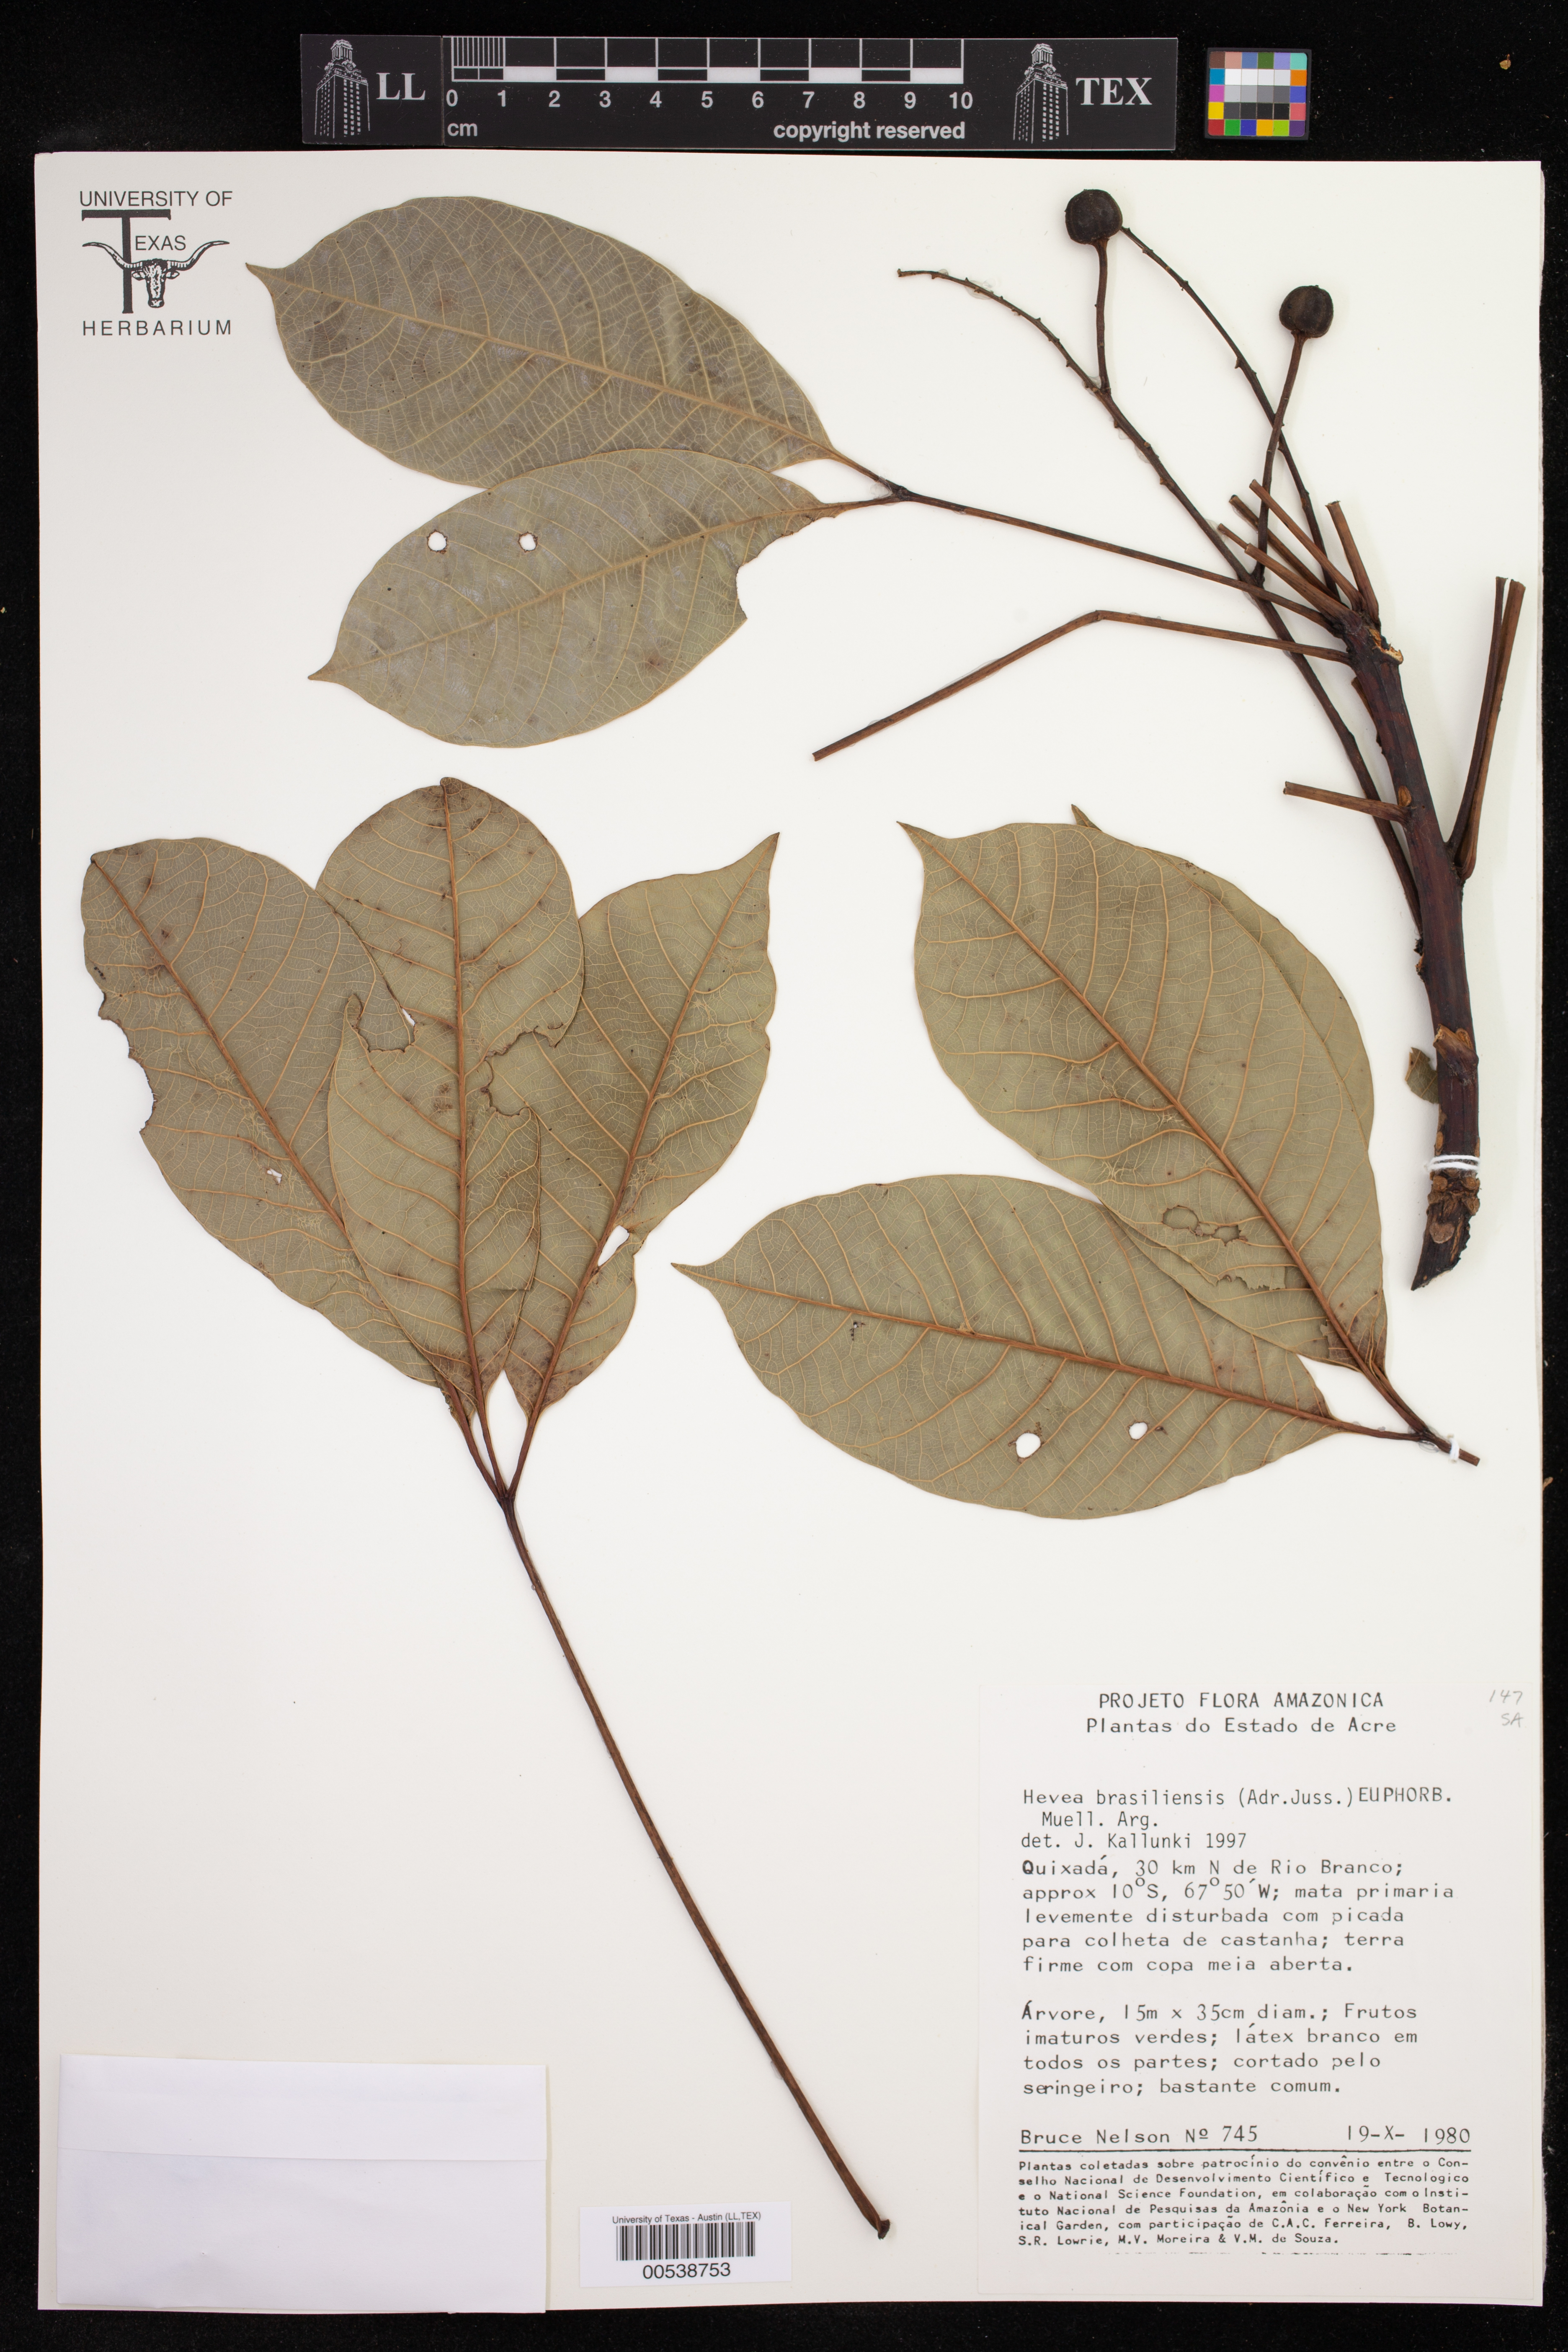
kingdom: Plantae
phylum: Tracheophyta
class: Magnoliopsida
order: Malpighiales
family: Euphorbiaceae
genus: Hevea
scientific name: Hevea brasiliensis
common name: Natural rubber
